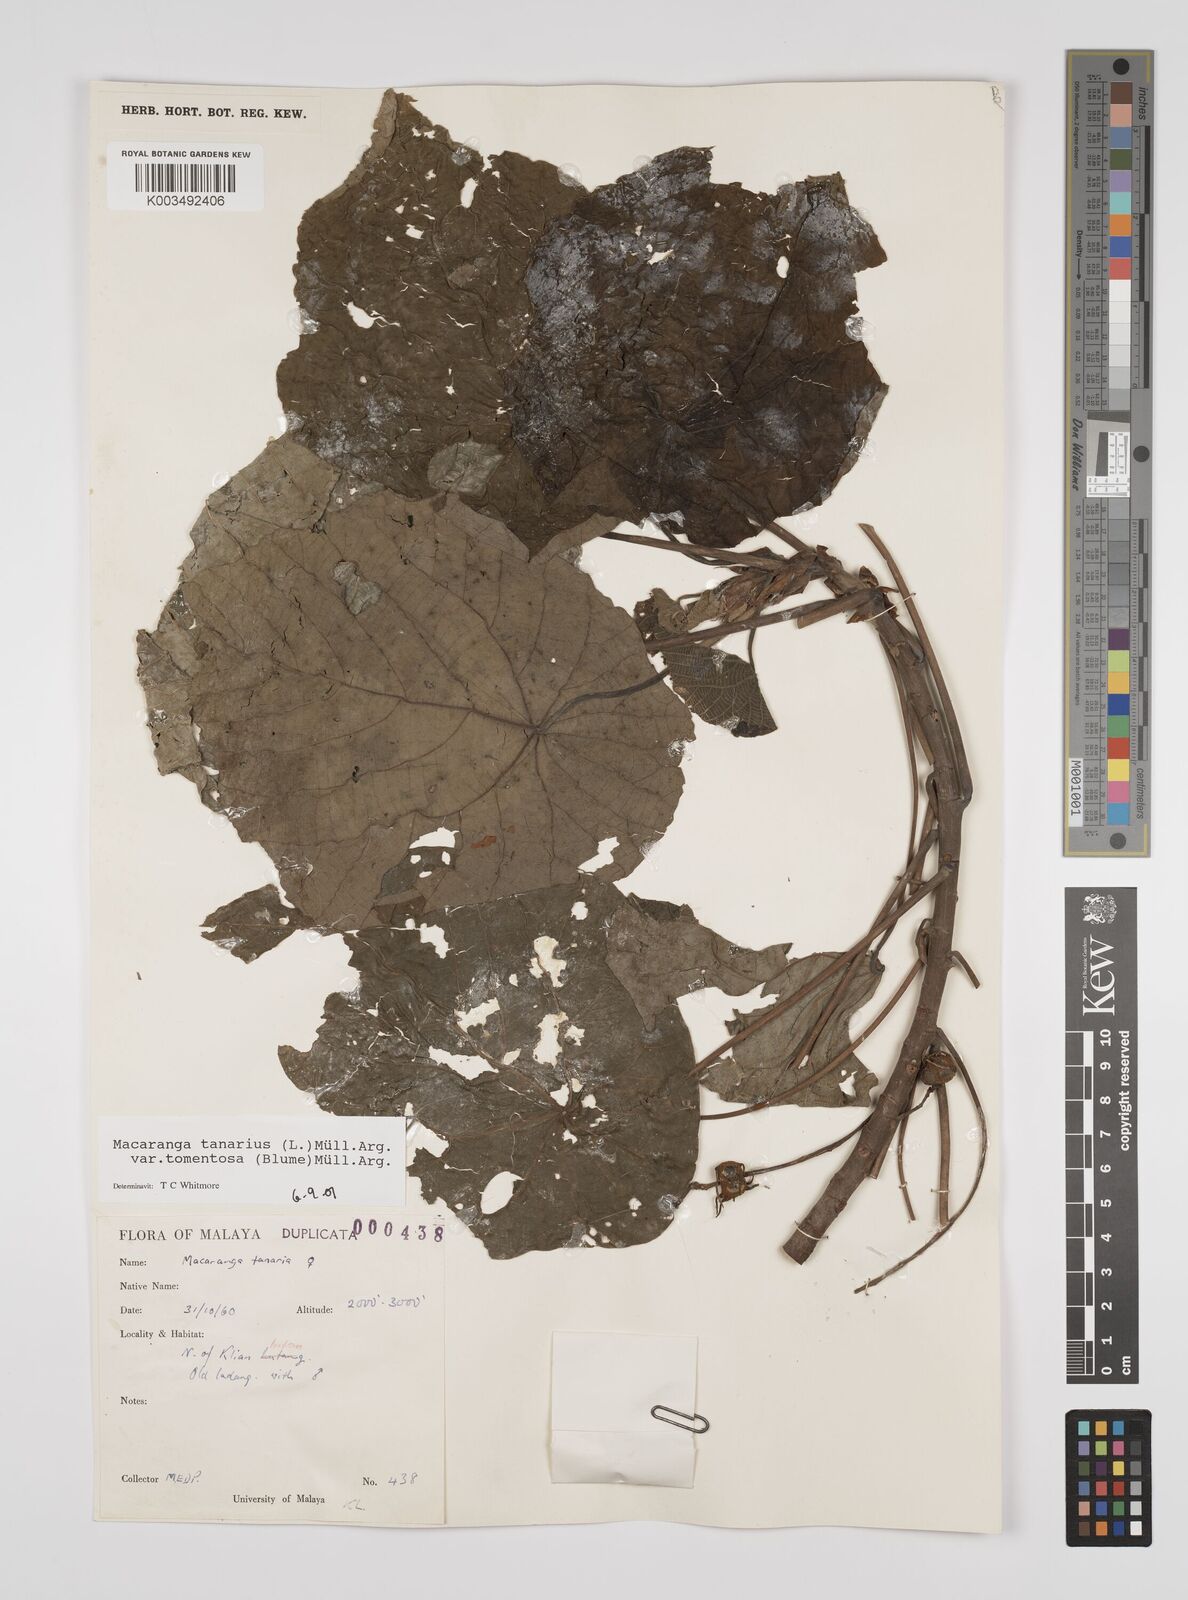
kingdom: Plantae
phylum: Tracheophyta
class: Magnoliopsida
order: Malpighiales
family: Euphorbiaceae
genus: Macaranga
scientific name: Macaranga tanarius
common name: Parasol leaf tree
